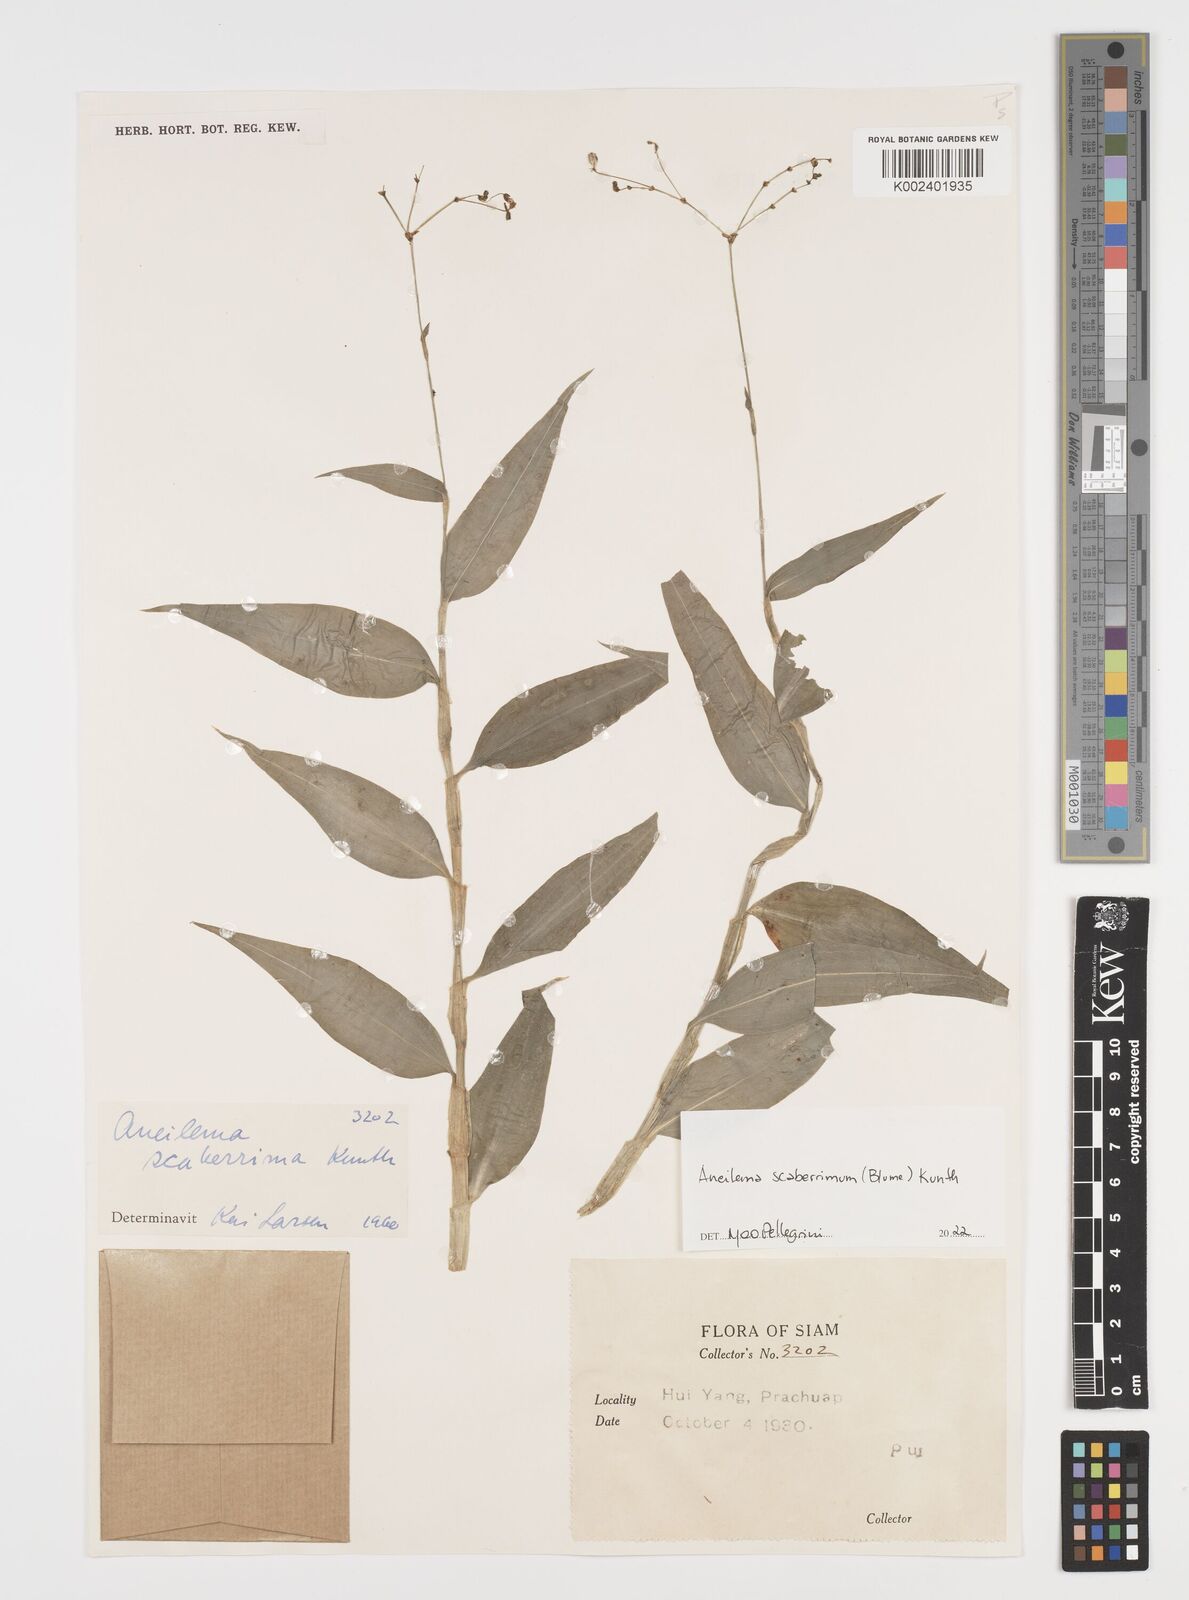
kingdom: Plantae
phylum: Tracheophyta
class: Liliopsida
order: Commelinales
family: Commelinaceae
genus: Rhopalephora
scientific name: Rhopalephora scaberrima
